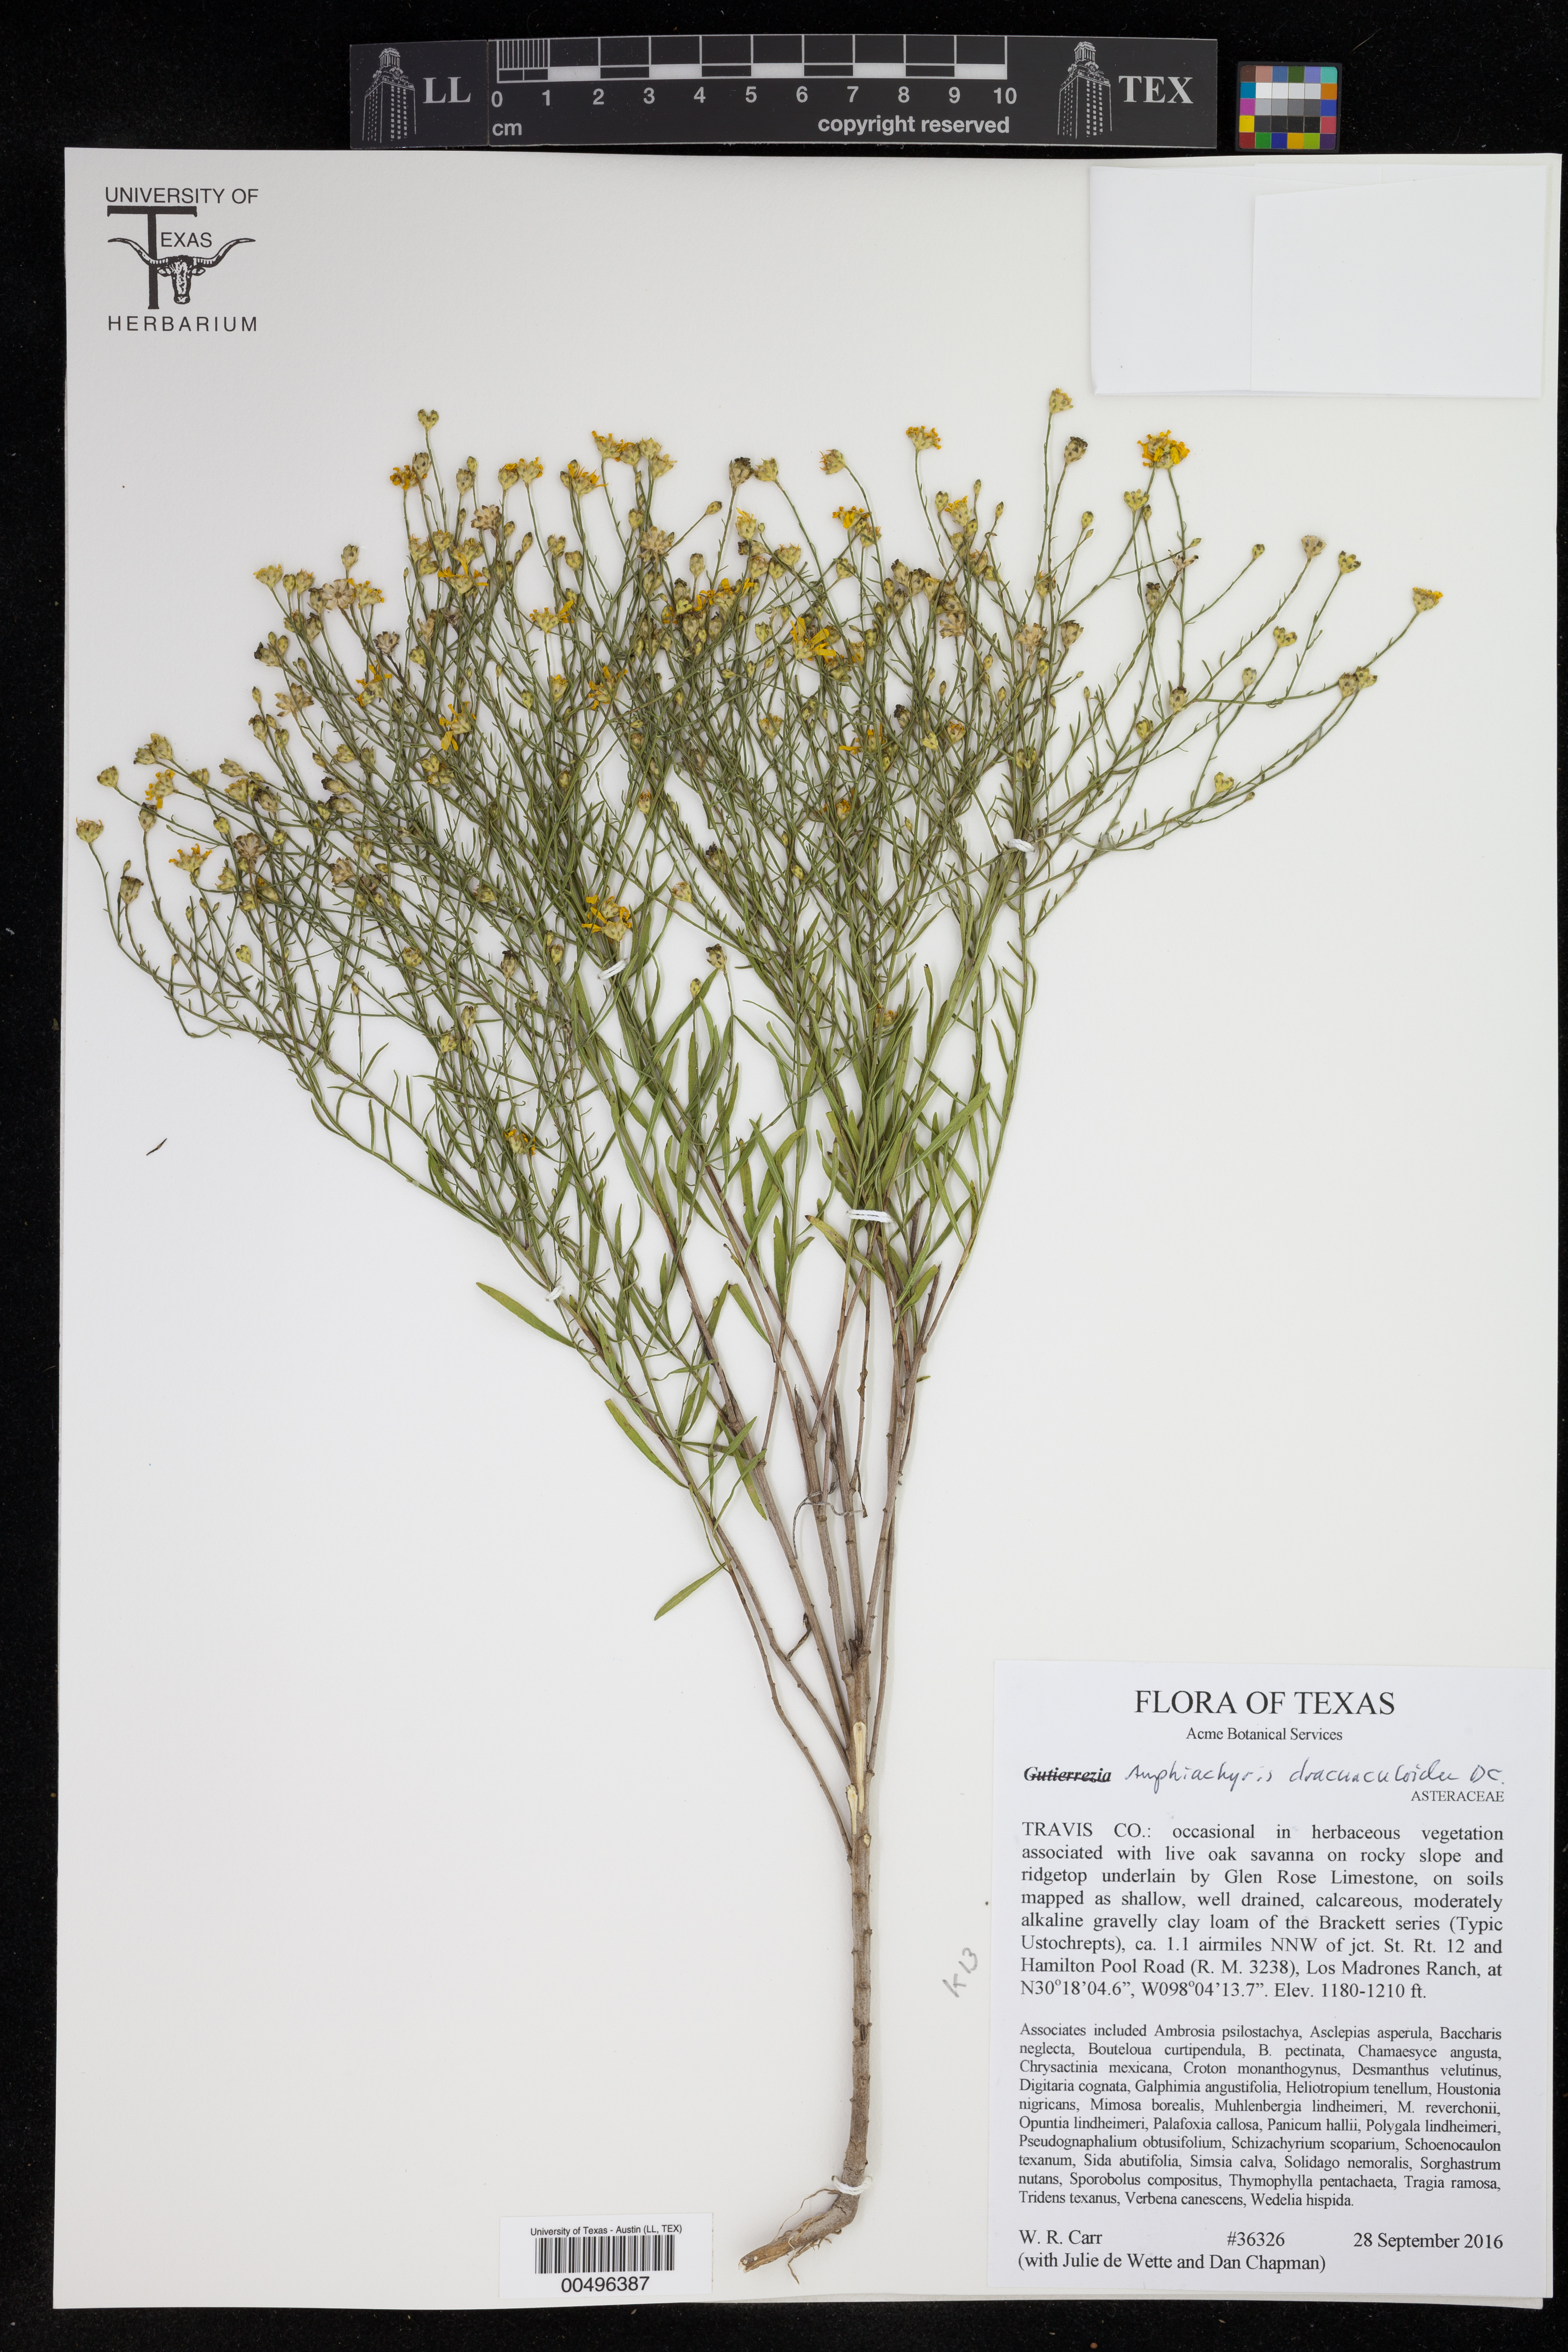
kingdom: Plantae
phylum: Tracheophyta
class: Magnoliopsida
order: Asterales
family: Asteraceae
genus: Amphiachyris
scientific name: Amphiachyris dracunculoides
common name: Broomweed
